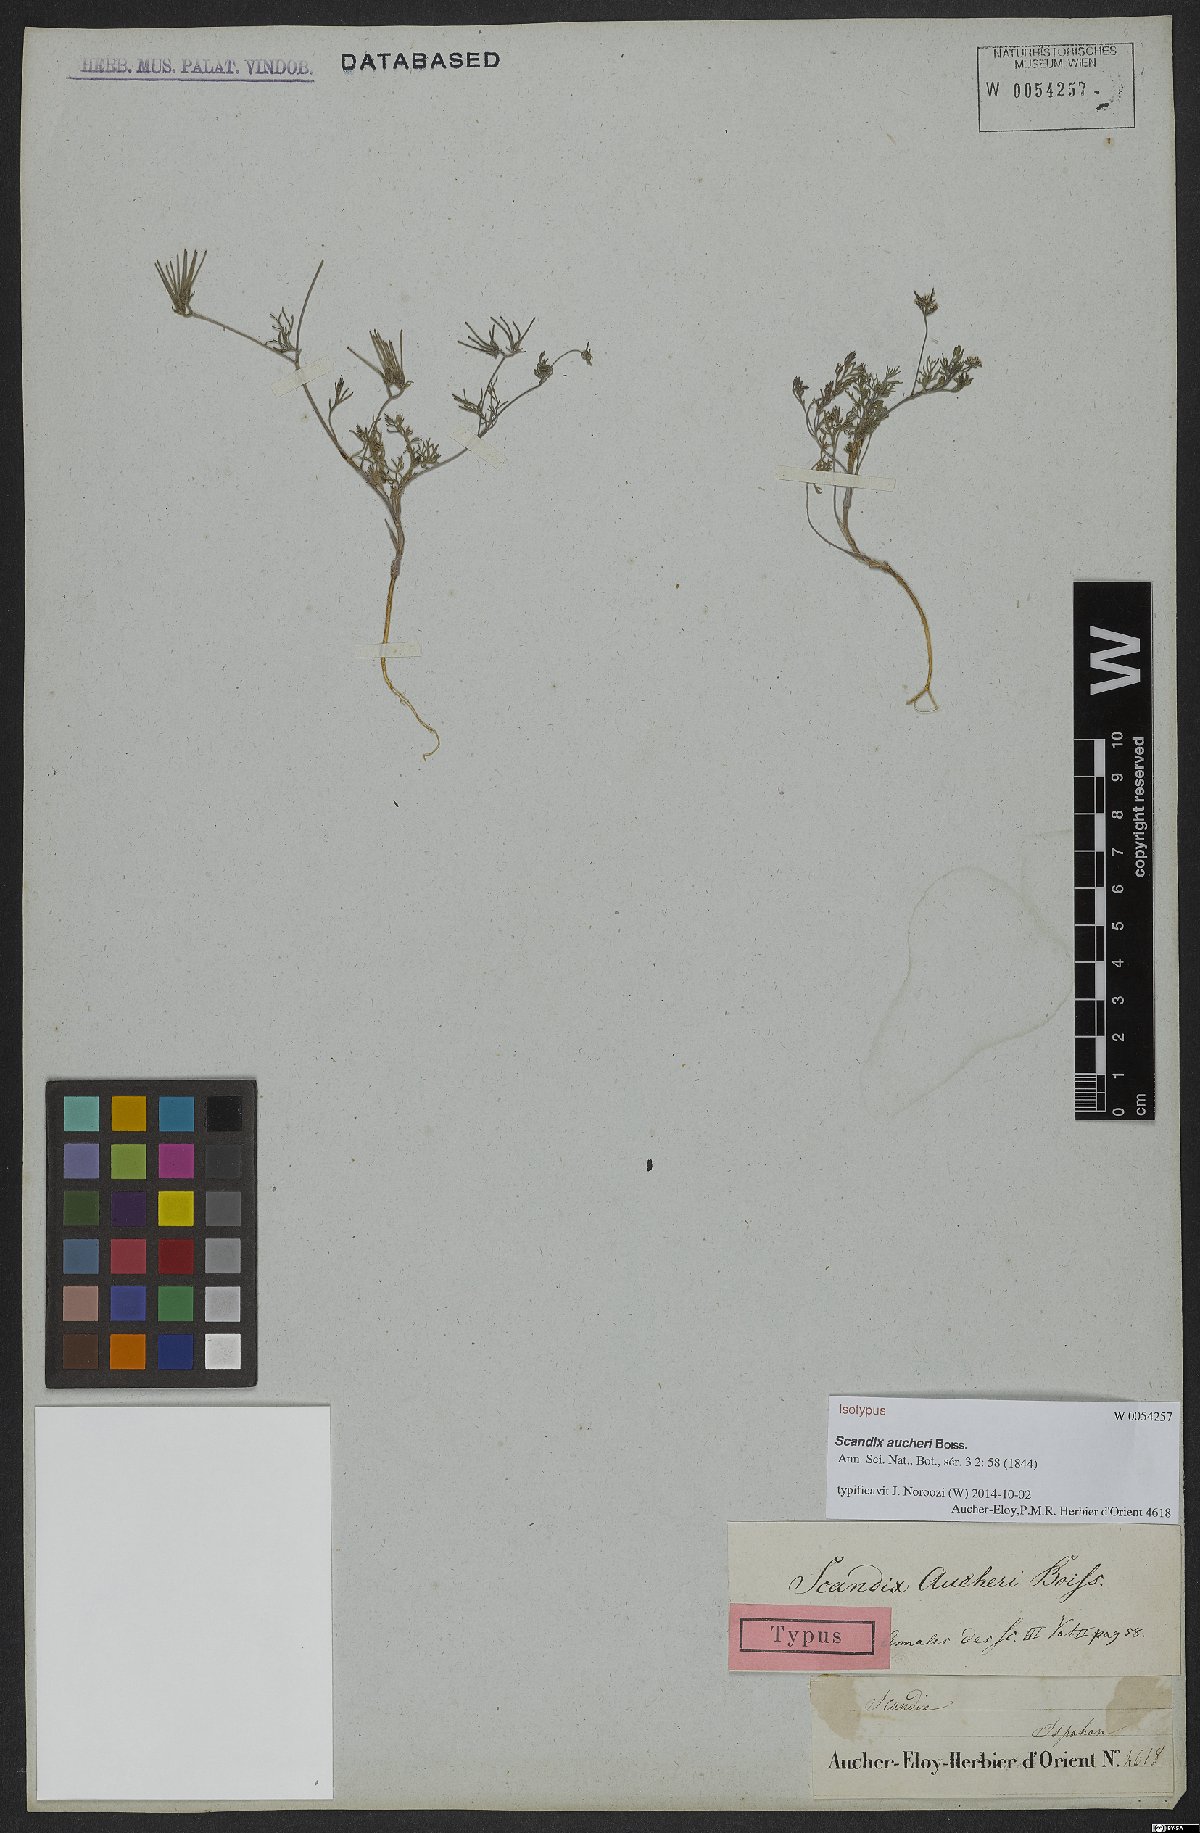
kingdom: Plantae
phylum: Tracheophyta
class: Magnoliopsida
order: Apiales
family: Apiaceae
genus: Scandix
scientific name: Scandix aucheri
